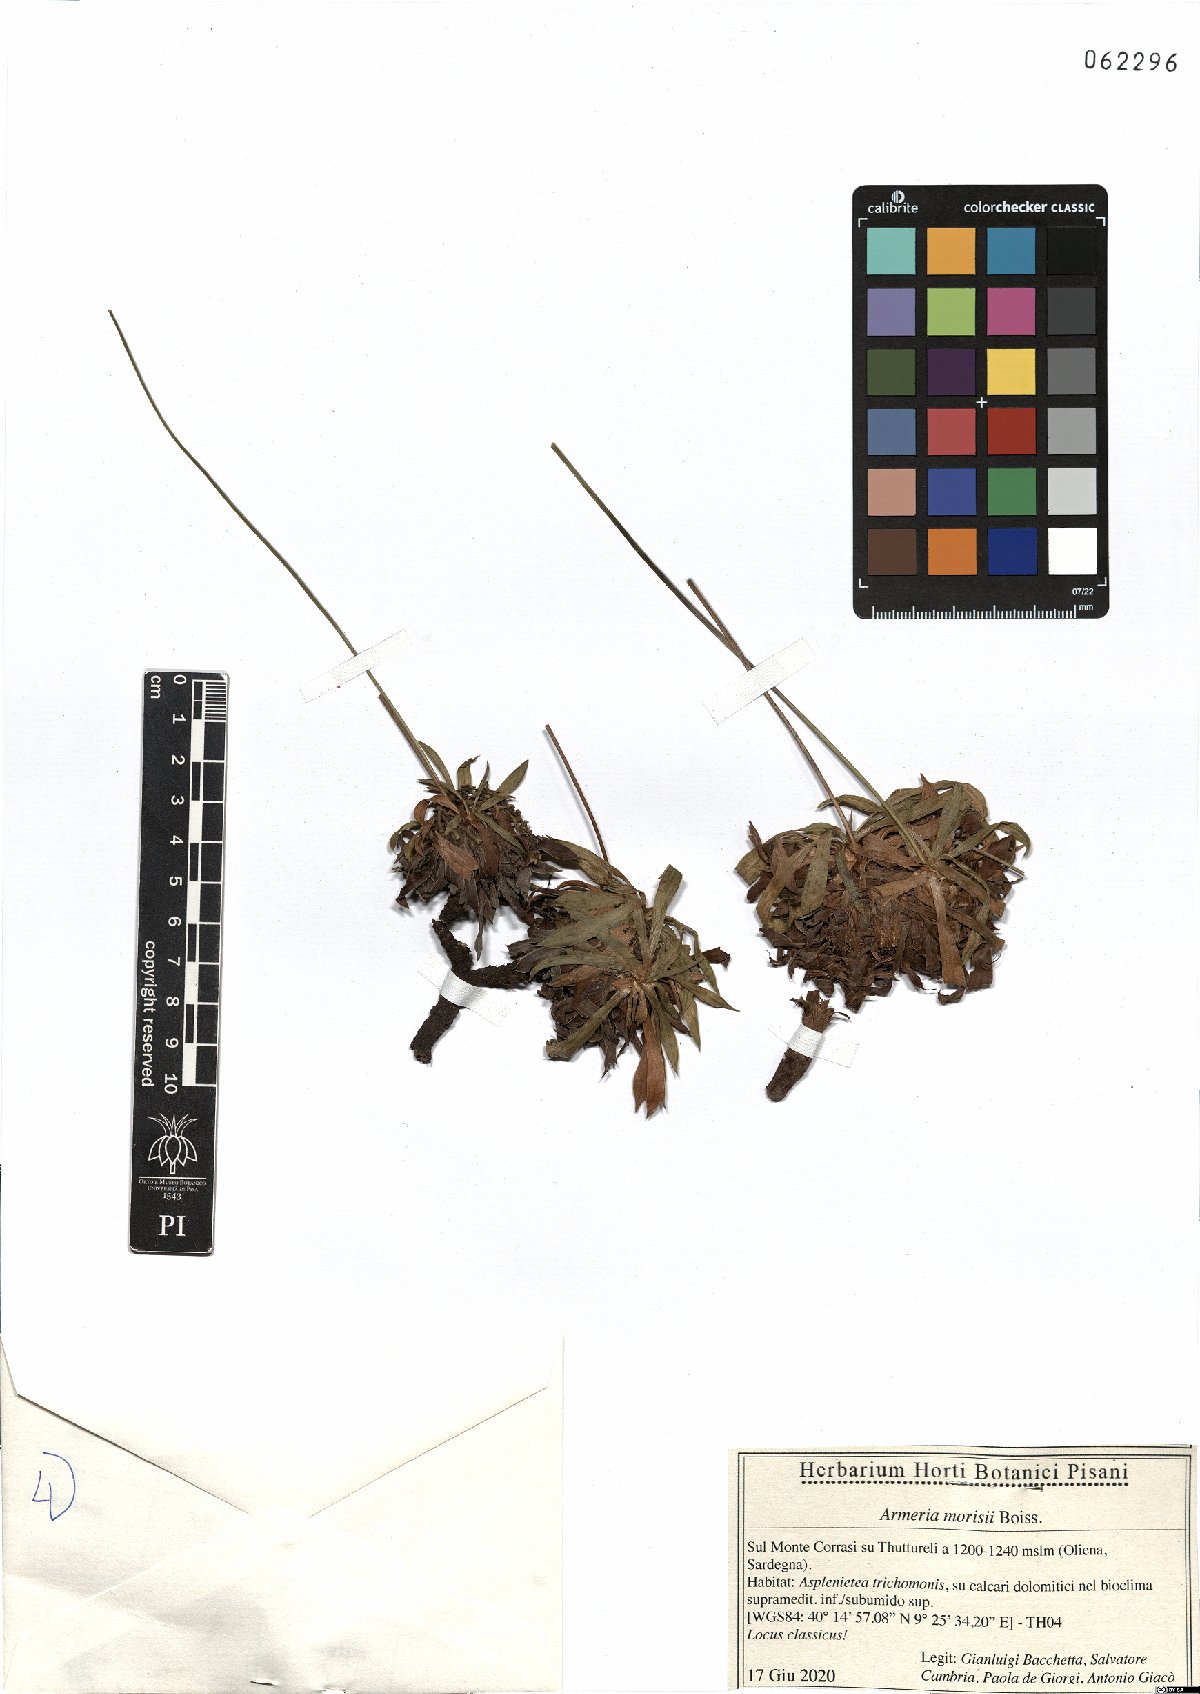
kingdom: Plantae
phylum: Tracheophyta
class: Magnoliopsida
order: Caryophyllales
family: Plumbaginaceae
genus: Armeria
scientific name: Armeria morisii
